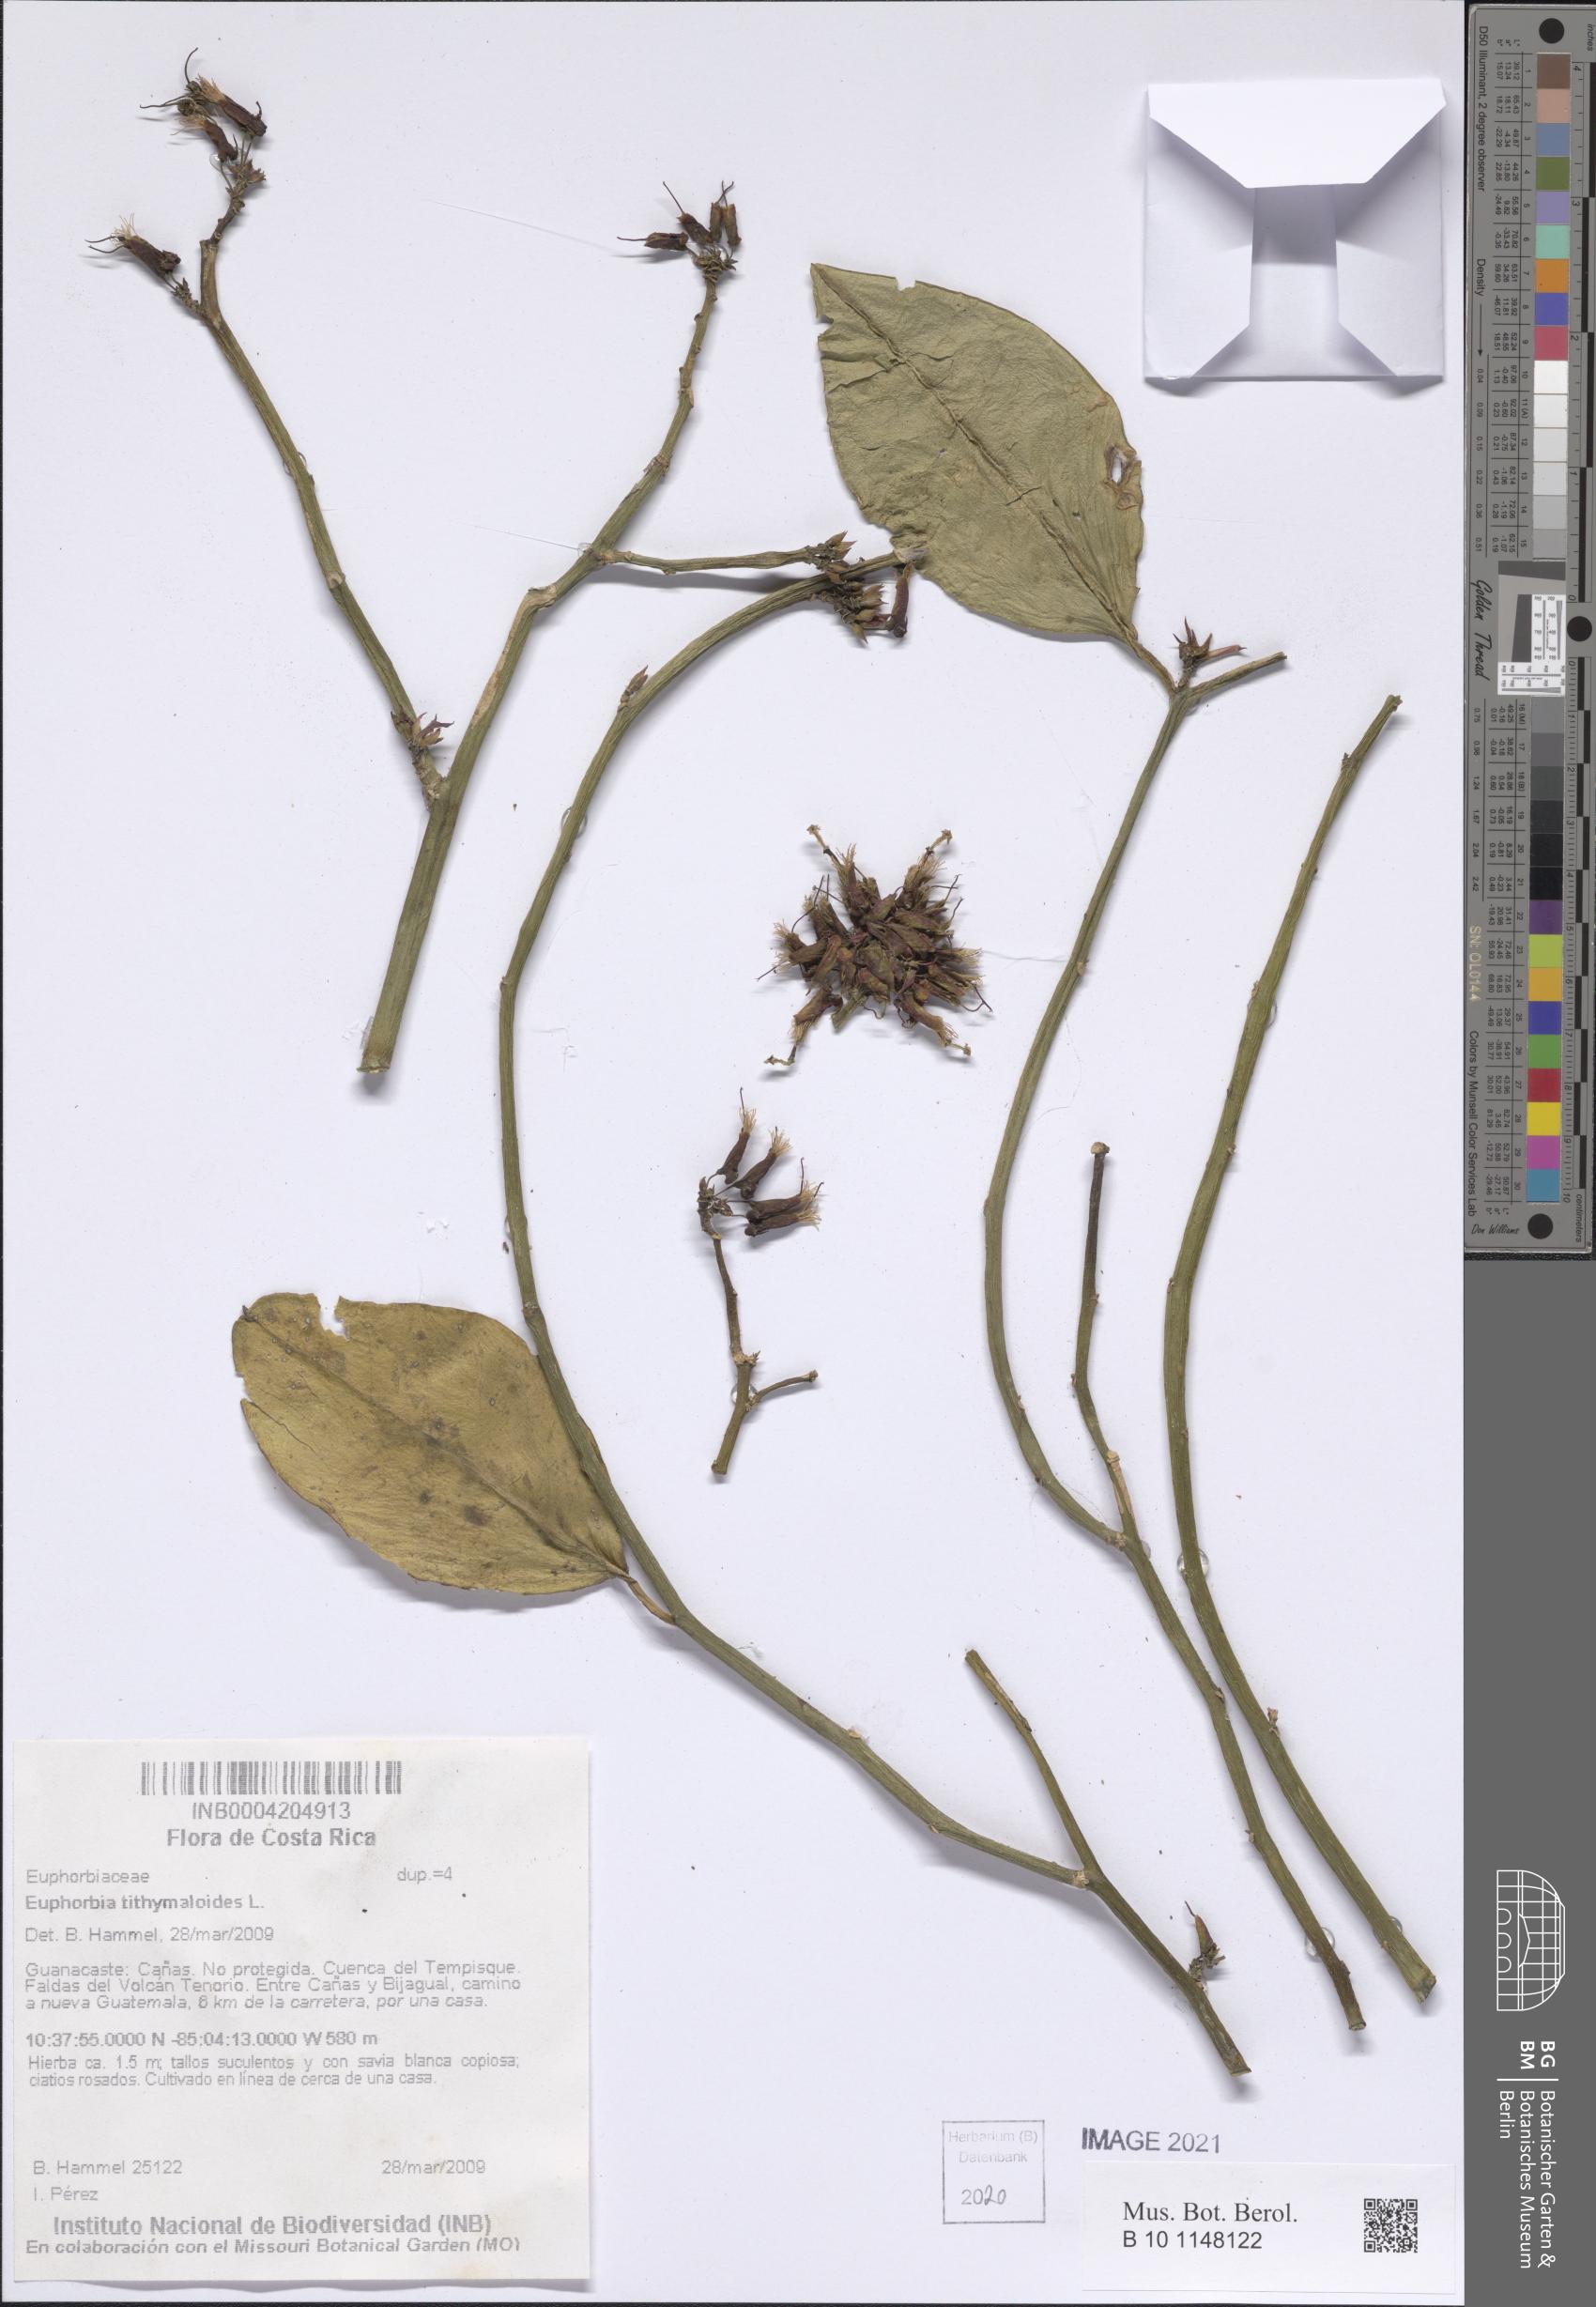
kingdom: Plantae
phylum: Tracheophyta
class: Magnoliopsida
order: Malpighiales
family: Euphorbiaceae
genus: Euphorbia
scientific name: Euphorbia tithymaloides
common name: Slipperplant
